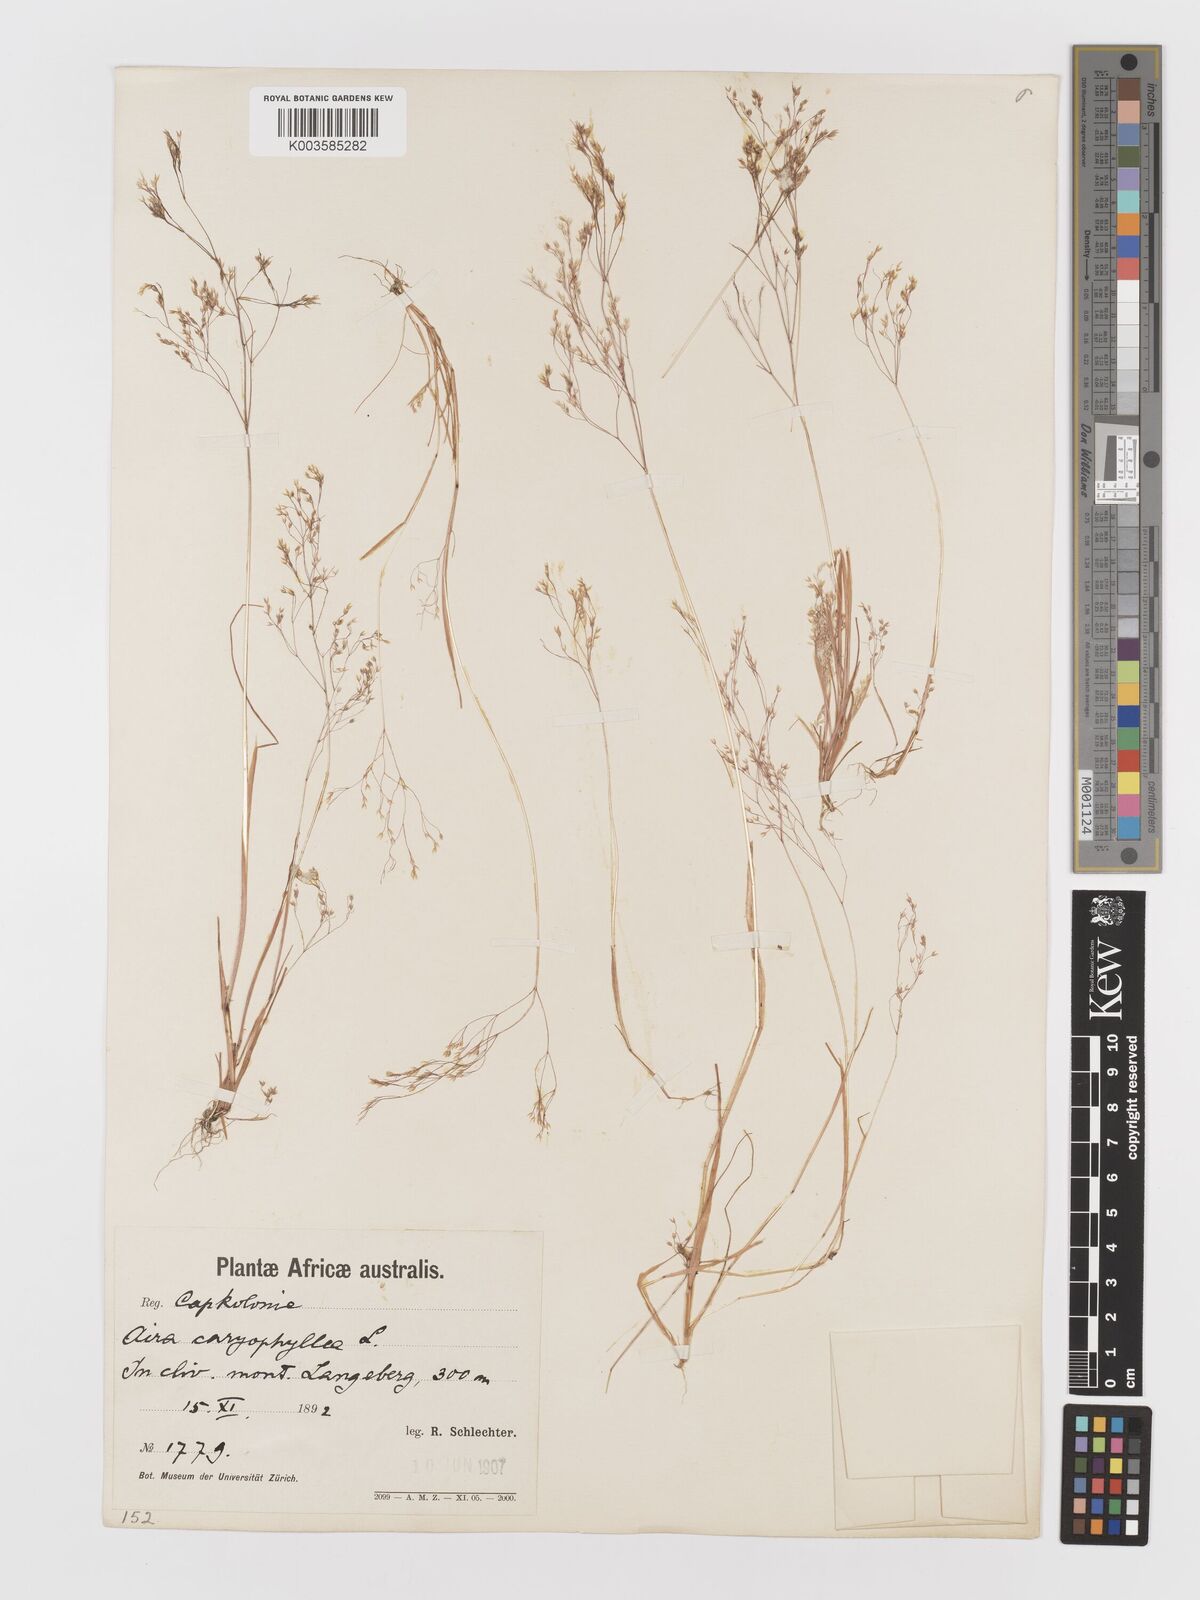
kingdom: Plantae
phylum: Tracheophyta
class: Liliopsida
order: Poales
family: Poaceae
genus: Aira
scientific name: Aira cupaniana
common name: Silver hairgrass
